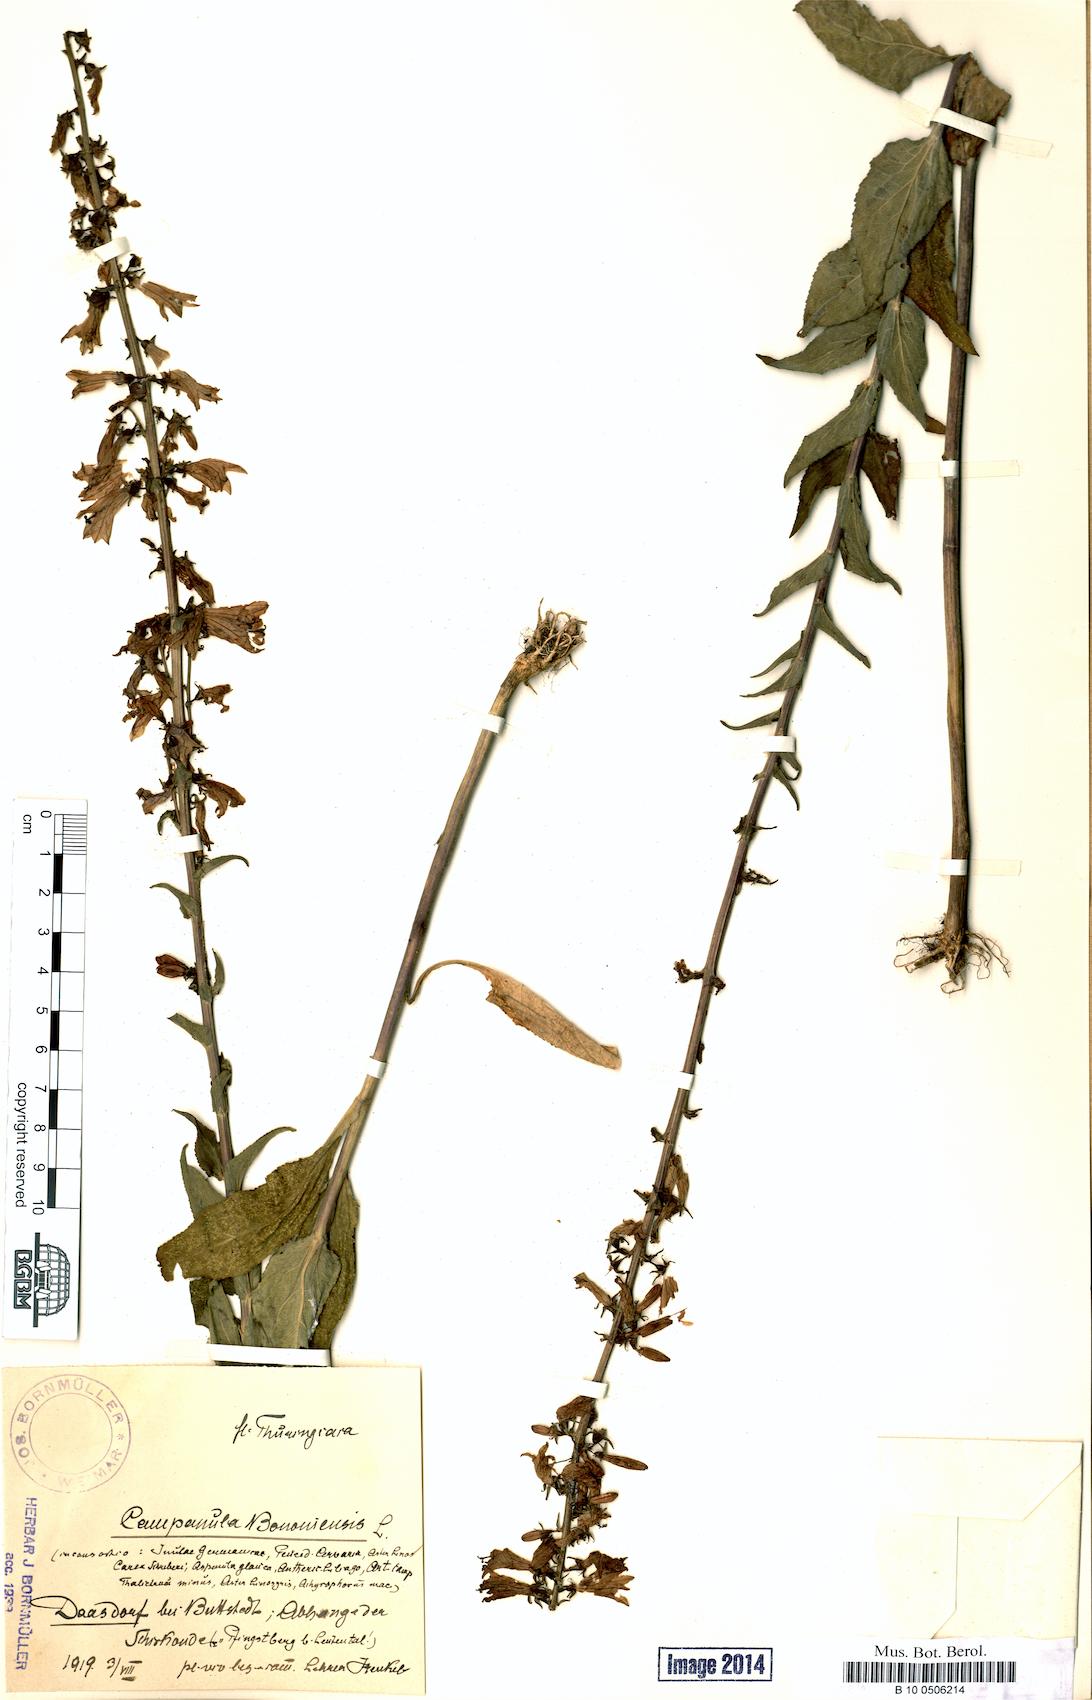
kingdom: Plantae
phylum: Tracheophyta
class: Magnoliopsida
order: Asterales
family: Campanulaceae
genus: Campanula
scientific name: Campanula bononiensis
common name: Pale bellflower
